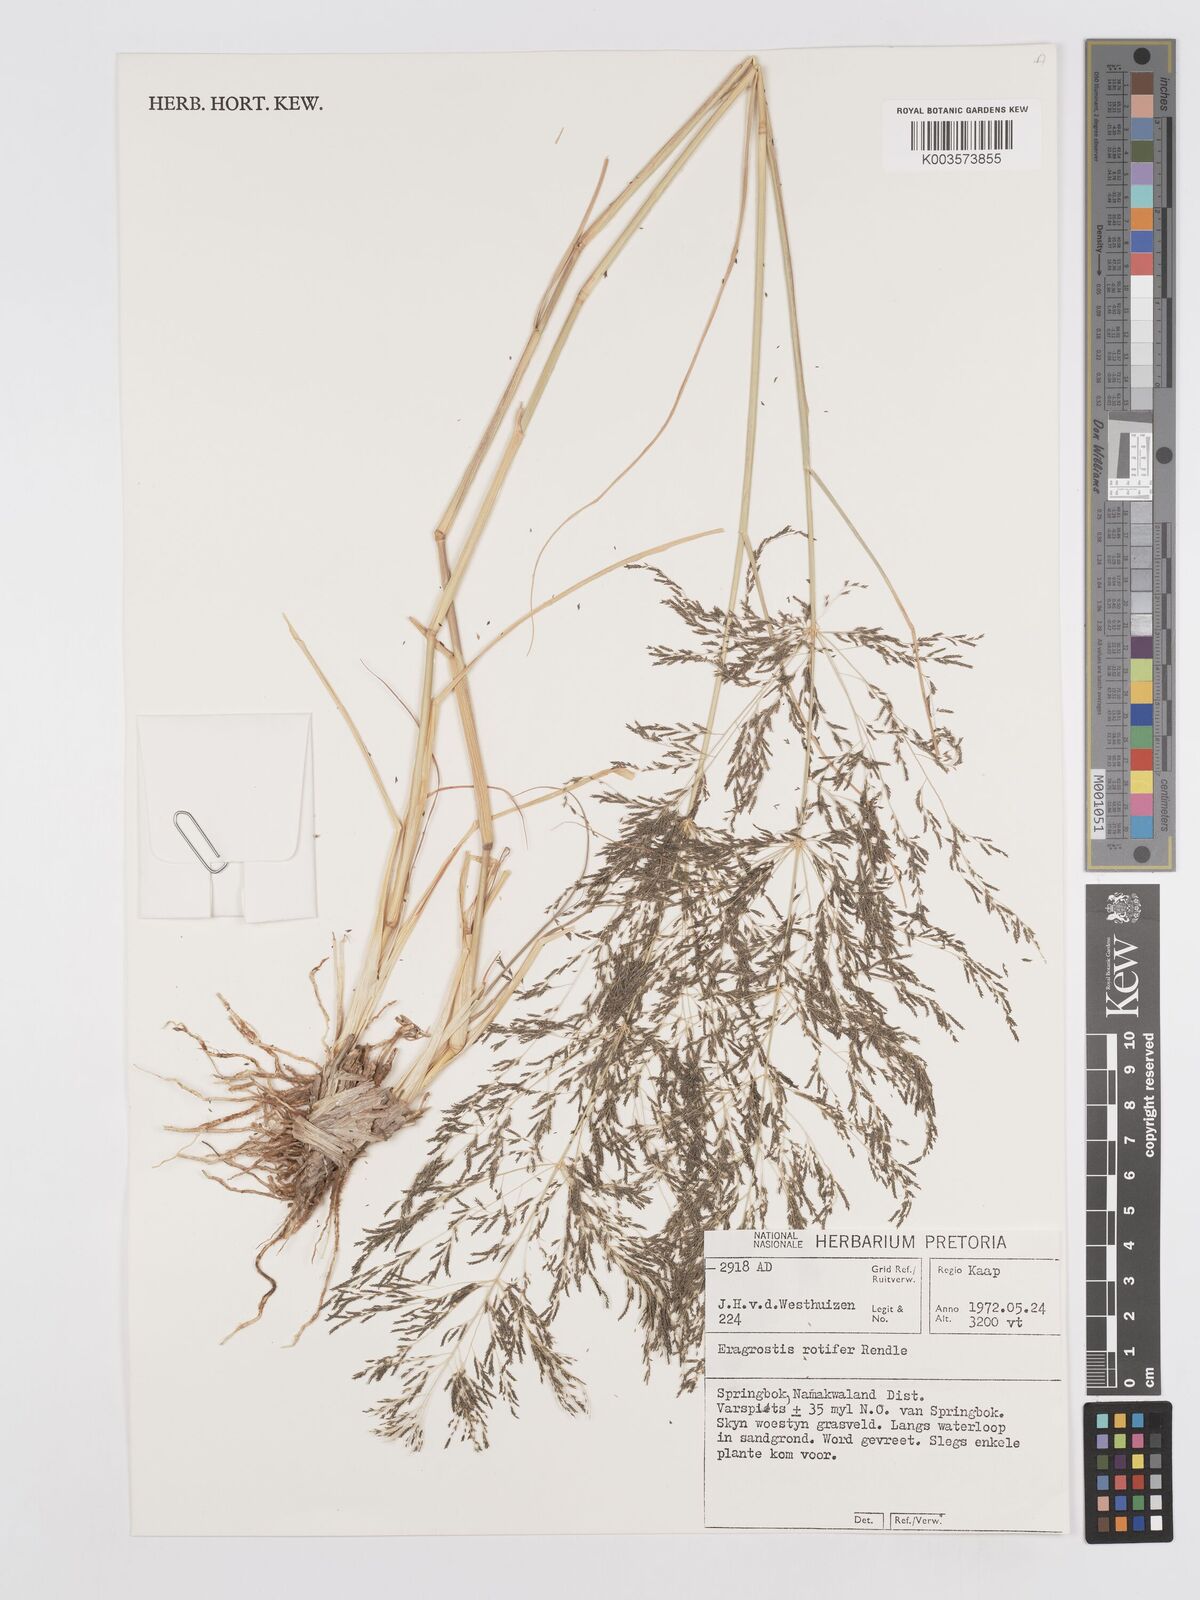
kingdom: Plantae
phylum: Tracheophyta
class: Liliopsida
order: Poales
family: Poaceae
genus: Eragrostis
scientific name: Eragrostis porosa
